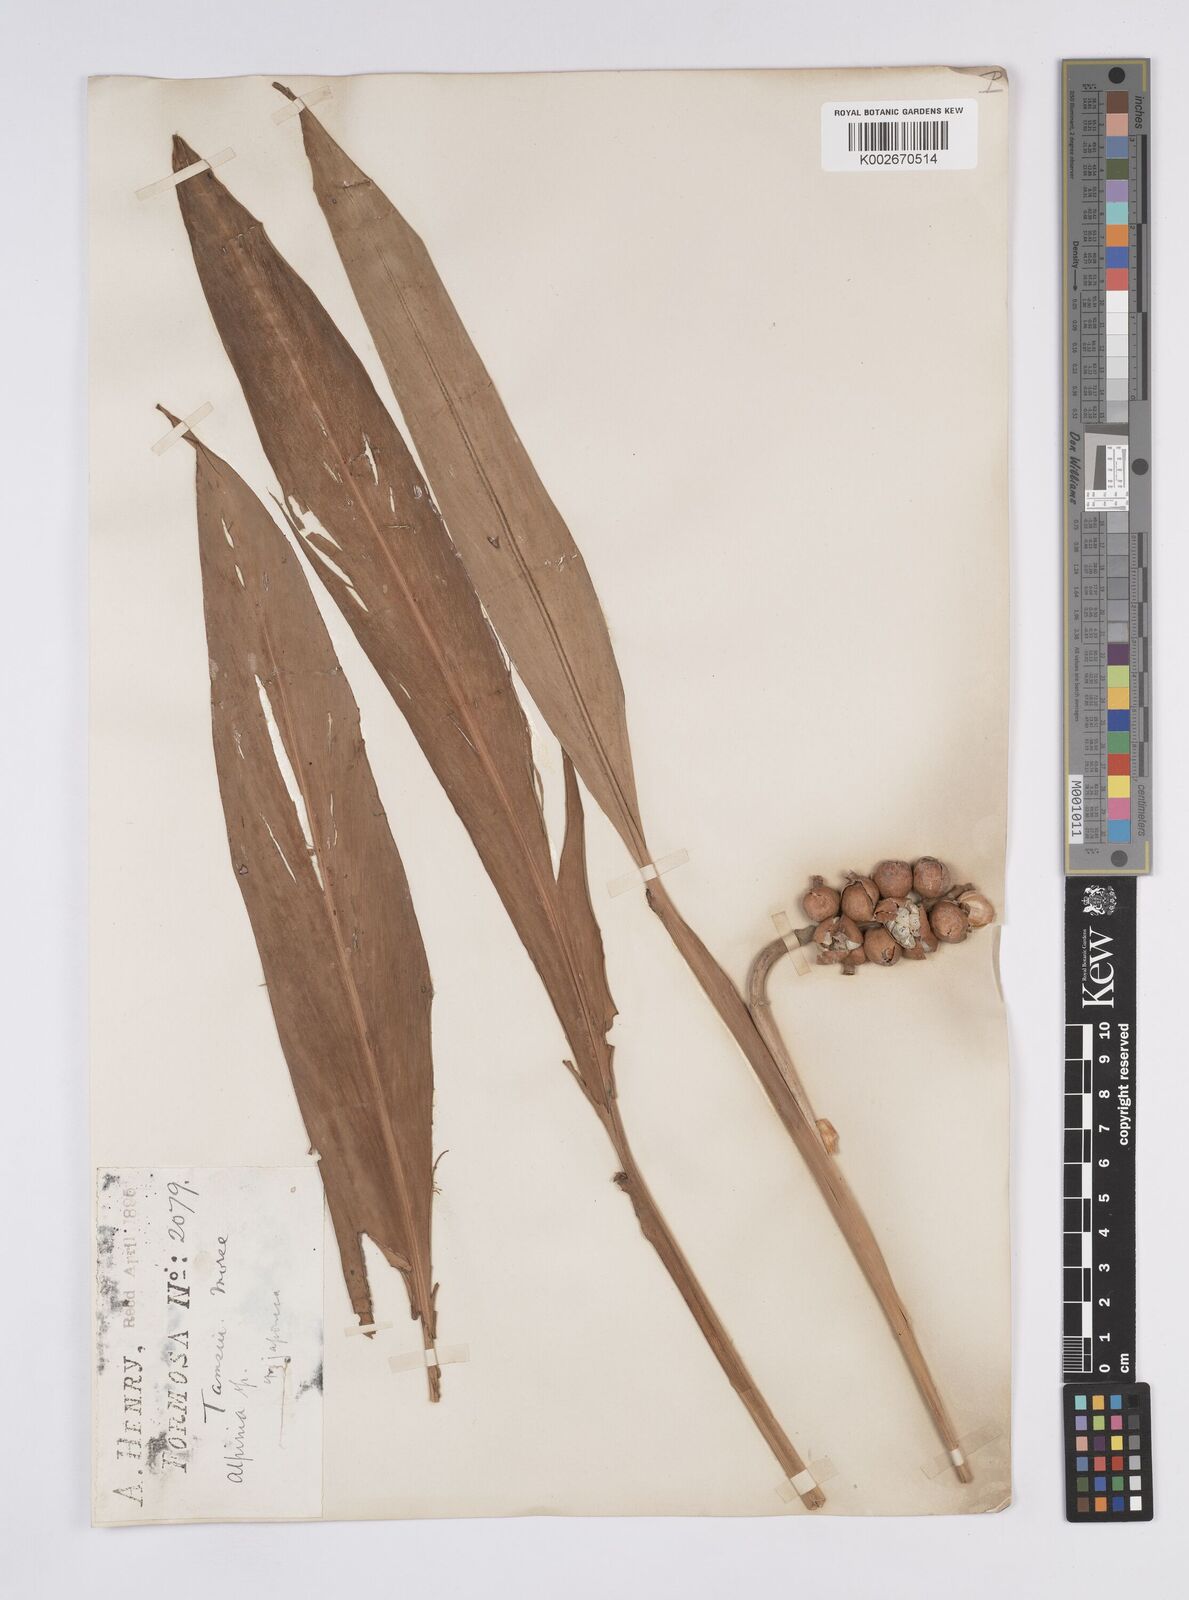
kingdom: Plantae
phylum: Tracheophyta
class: Liliopsida
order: Zingiberales
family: Zingiberaceae
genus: Alpinia
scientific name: Alpinia japonica
